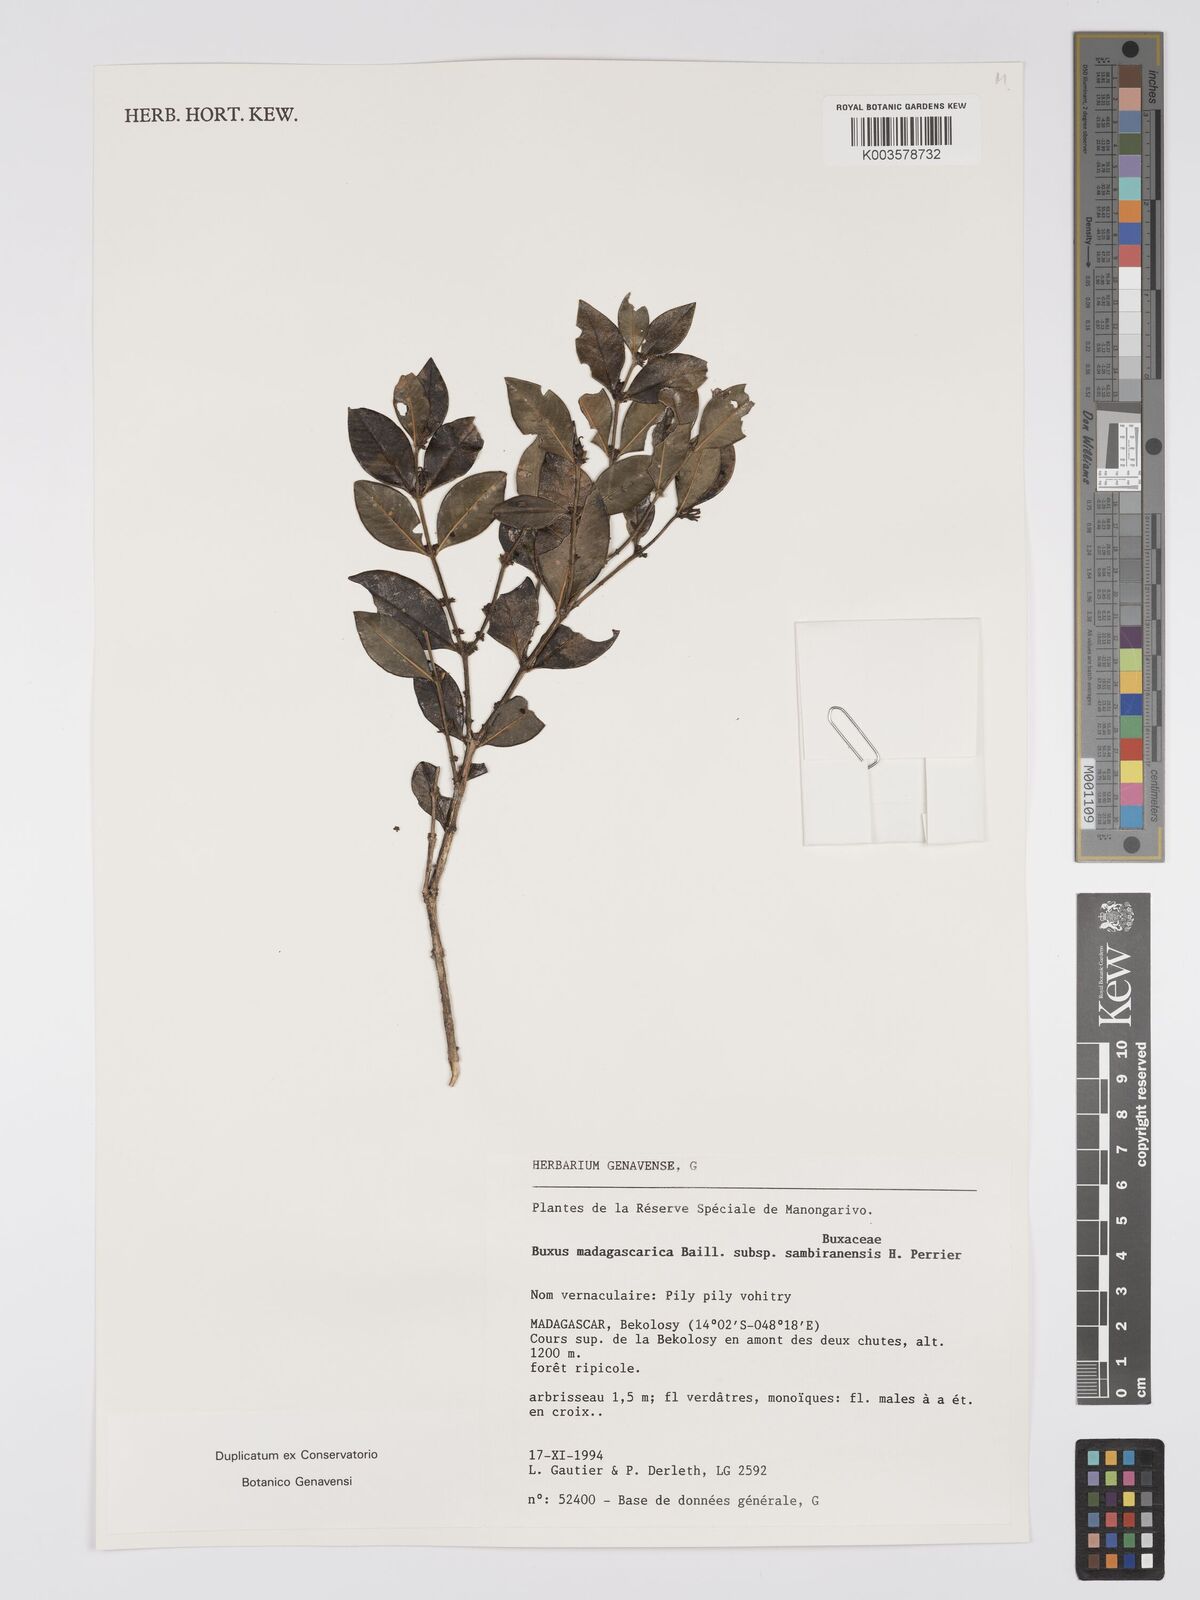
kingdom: Plantae
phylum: Tracheophyta
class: Magnoliopsida
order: Buxales
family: Buxaceae
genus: Buxus
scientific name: Buxus madagascarica
